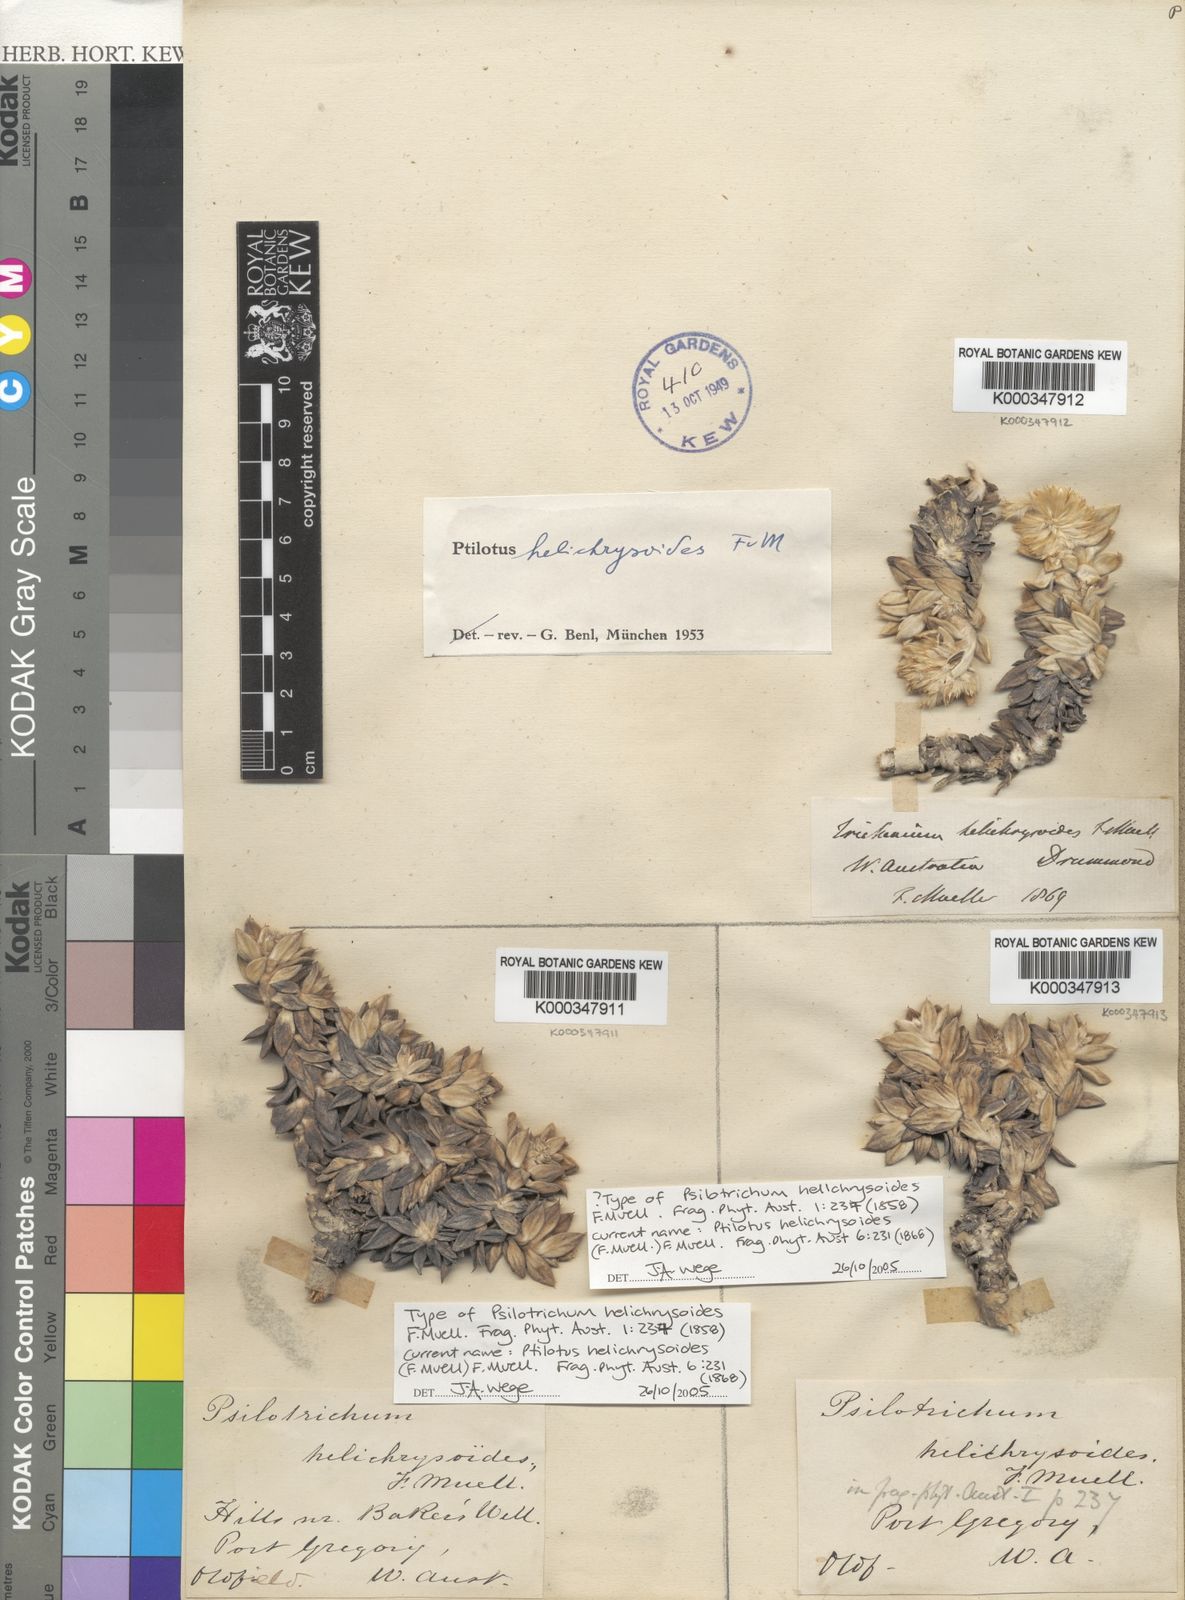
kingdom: Plantae
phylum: Tracheophyta
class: Magnoliopsida
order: Caryophyllales
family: Amaranthaceae
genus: Ptilotus
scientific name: Ptilotus helichrysoides
